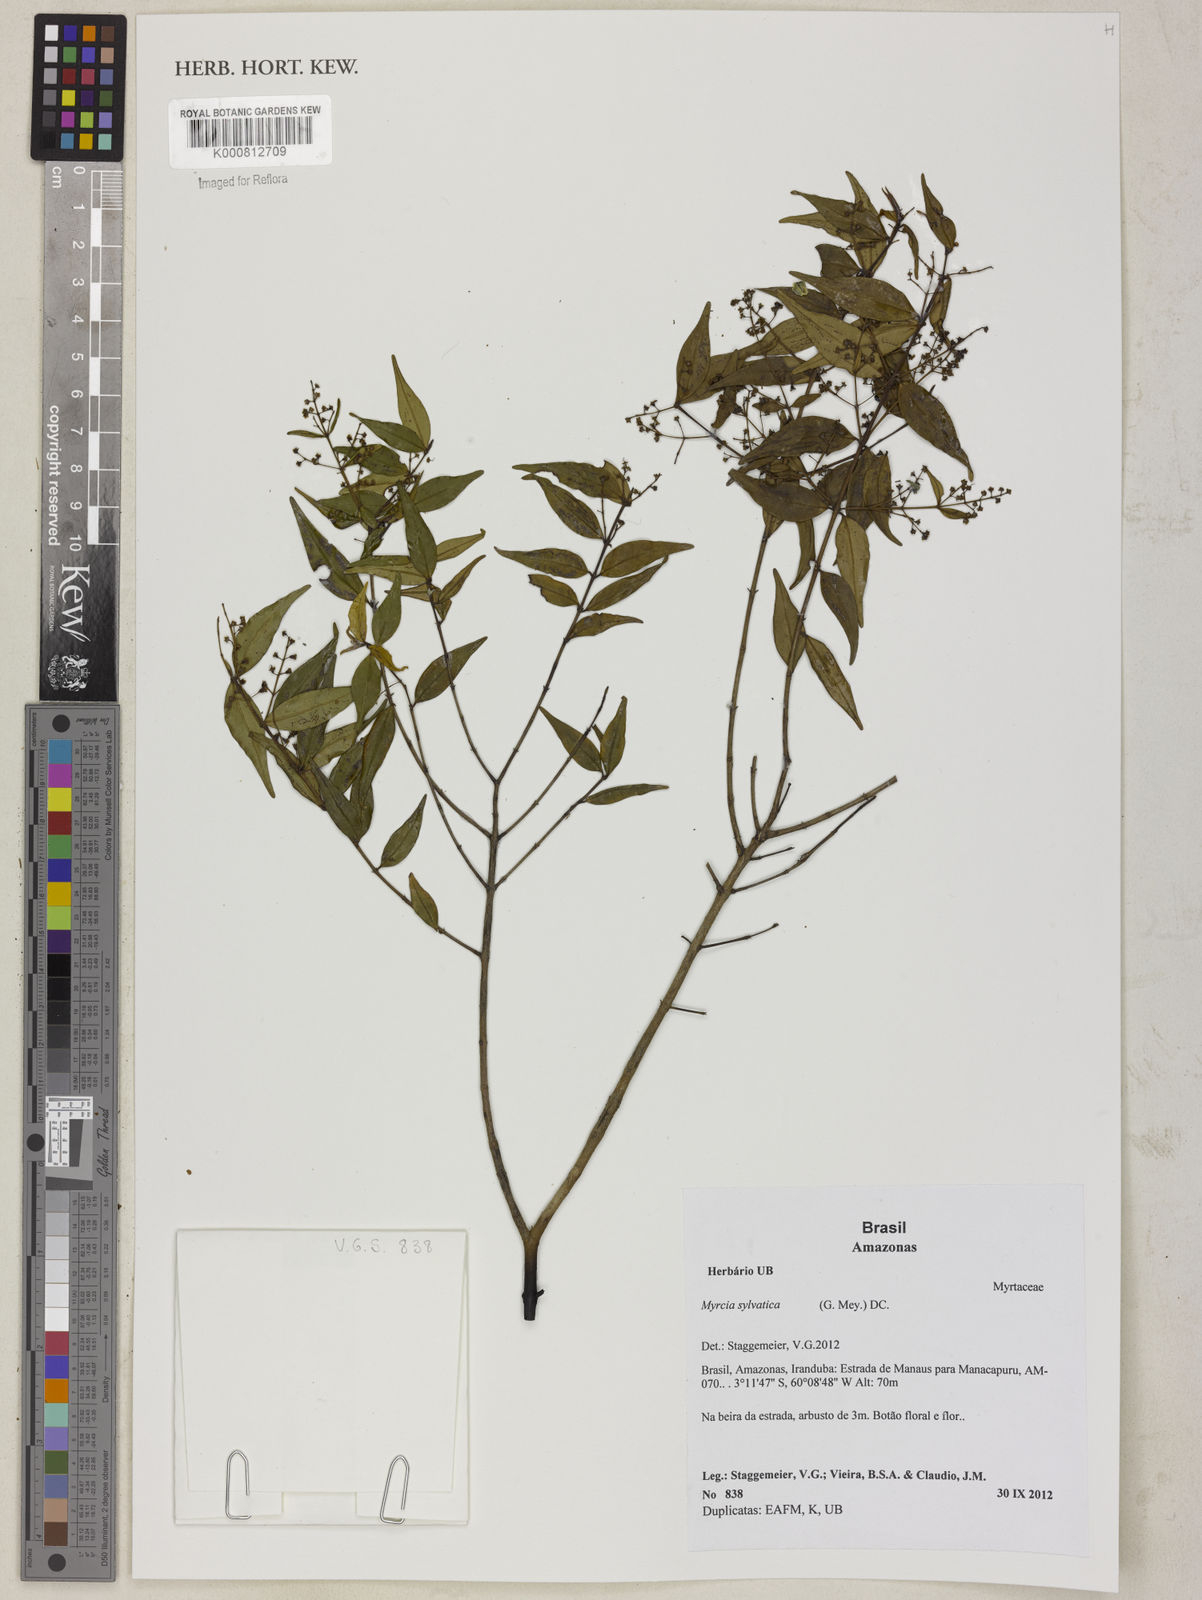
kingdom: Plantae
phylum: Tracheophyta
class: Magnoliopsida
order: Myrtales
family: Myrtaceae
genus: Myrcia
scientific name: Myrcia sylvatica
